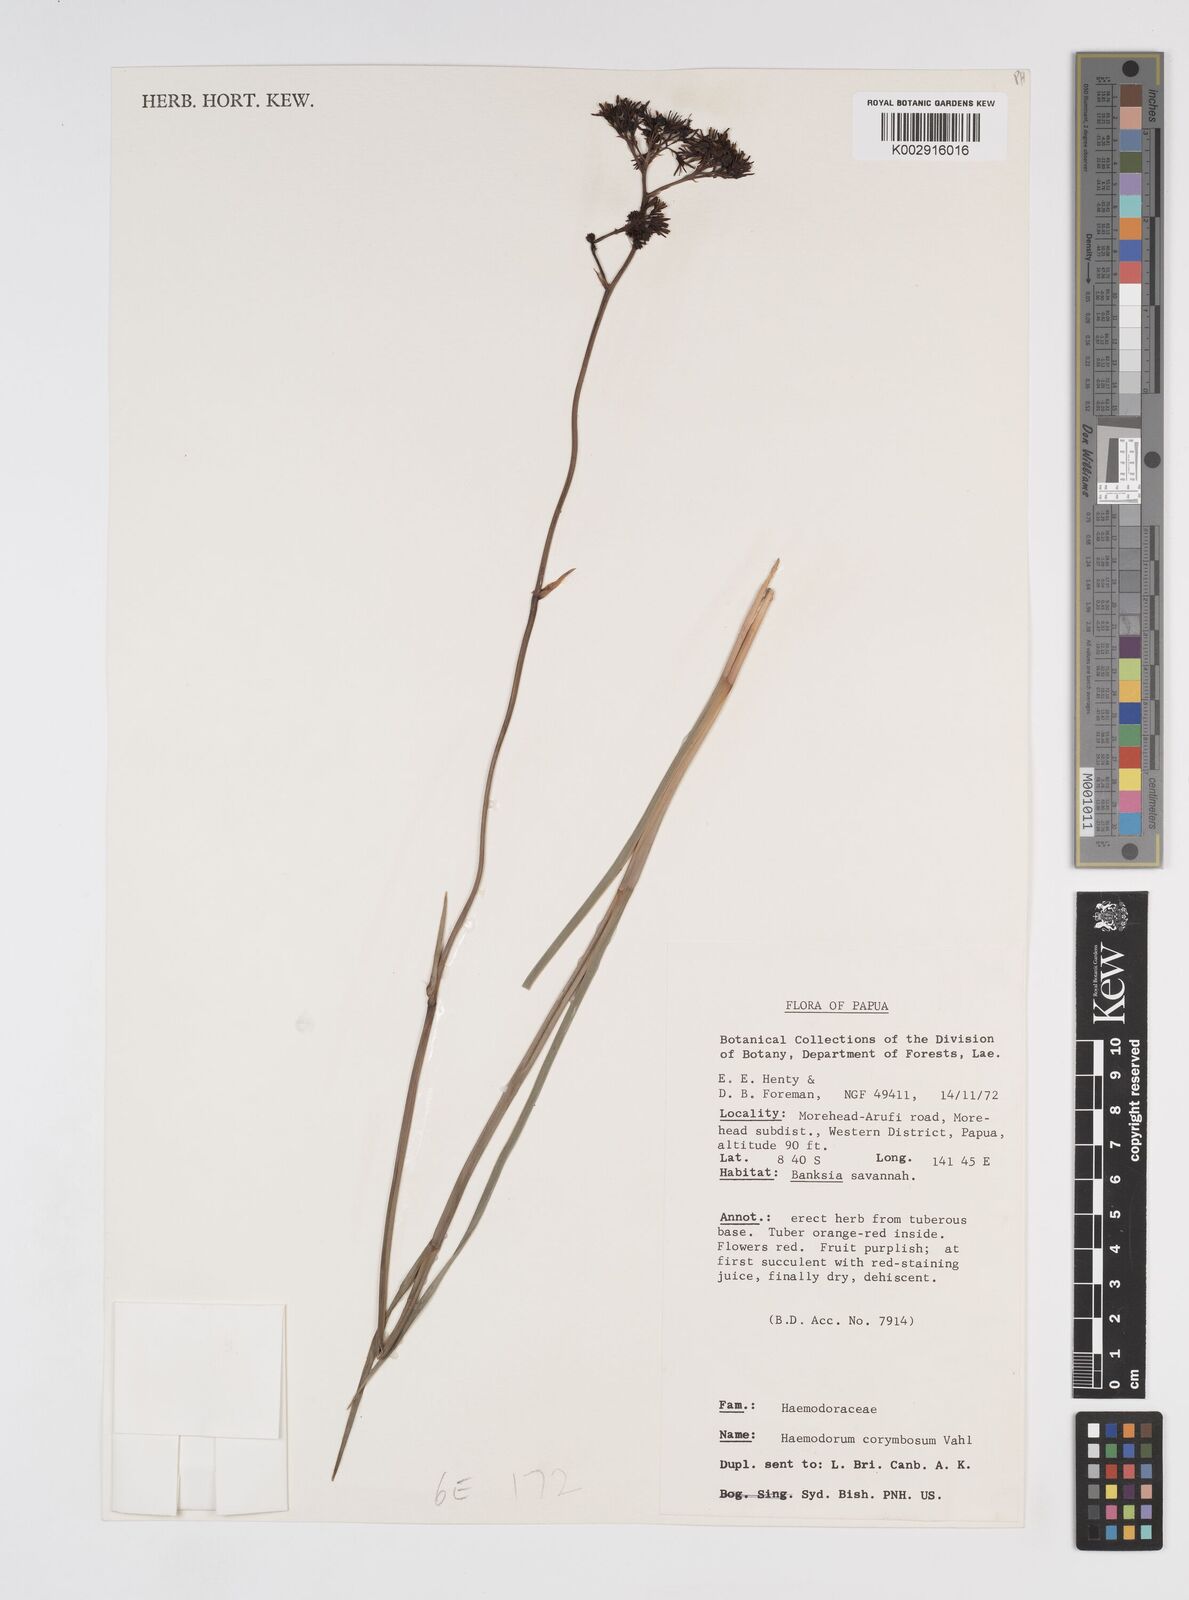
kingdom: Plantae
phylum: Tracheophyta
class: Liliopsida
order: Commelinales
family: Haemodoraceae
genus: Haemodorum
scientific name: Haemodorum corymbosum
